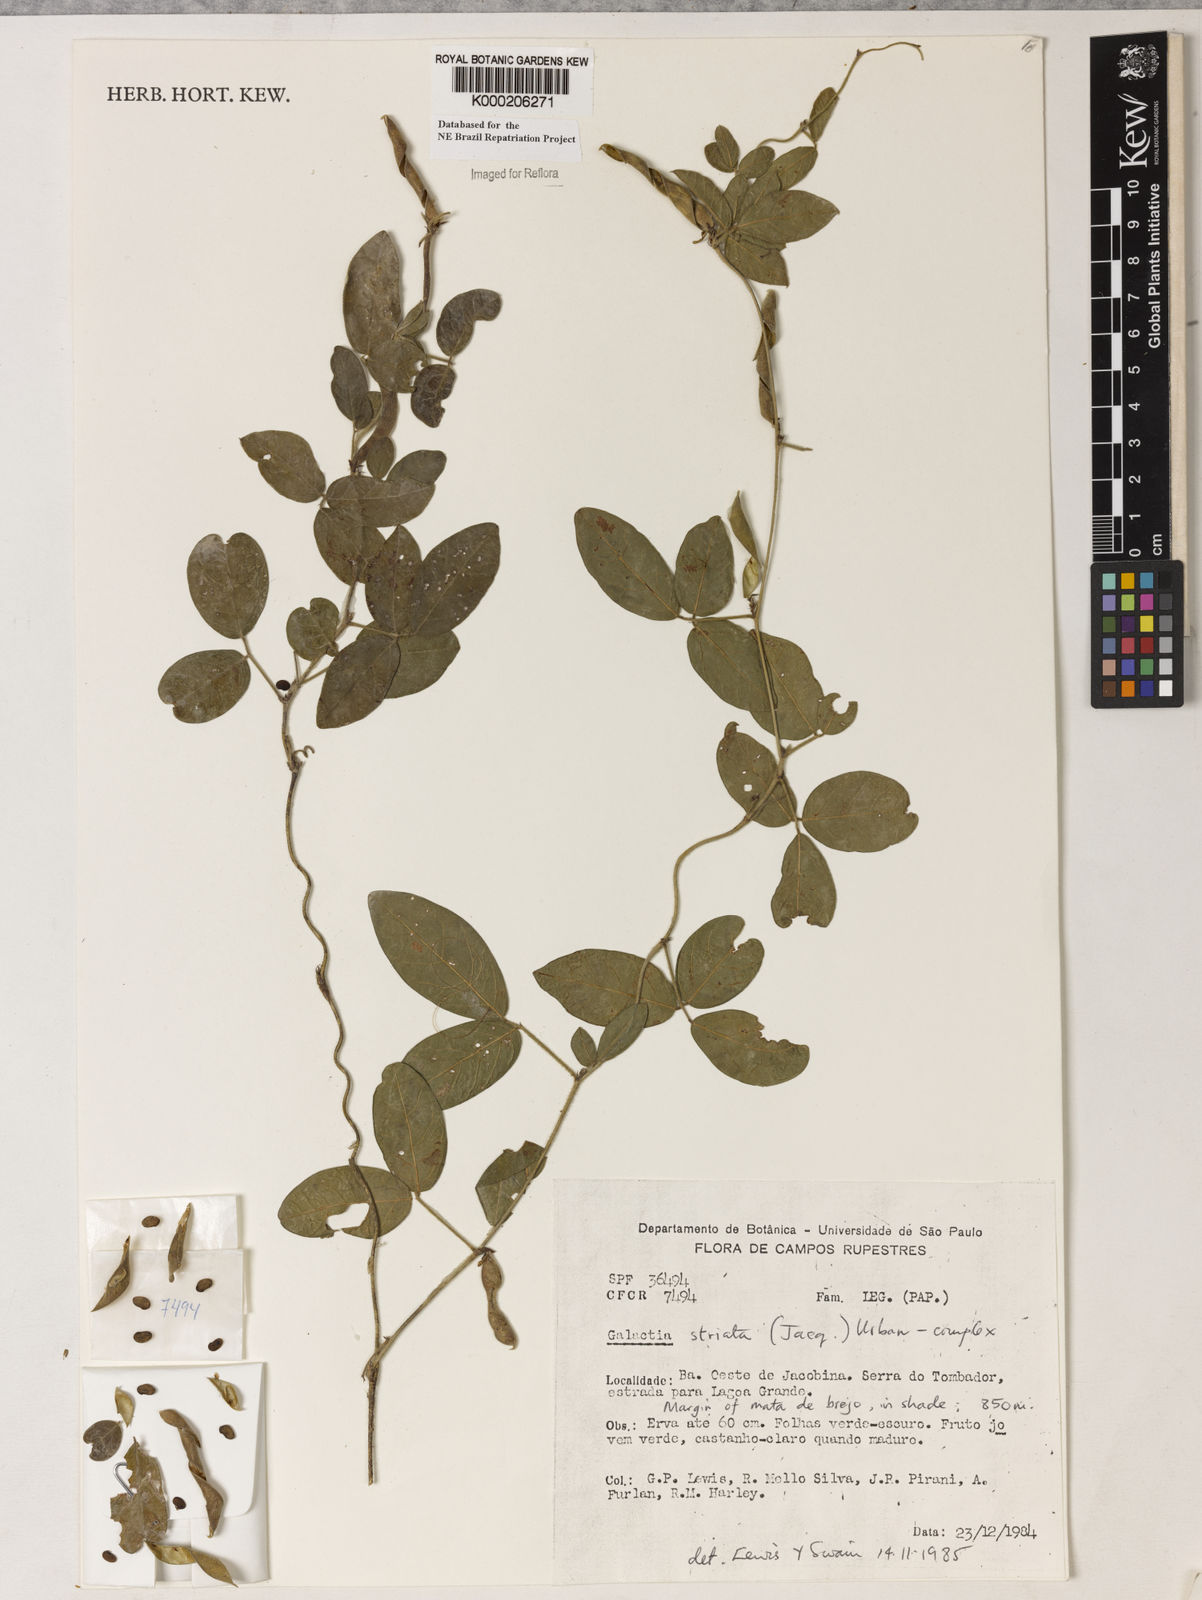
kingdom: Plantae
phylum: Tracheophyta
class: Magnoliopsida
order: Fabales
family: Fabaceae
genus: Galactia
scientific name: Galactia striata
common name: Florida hammock milkpea
